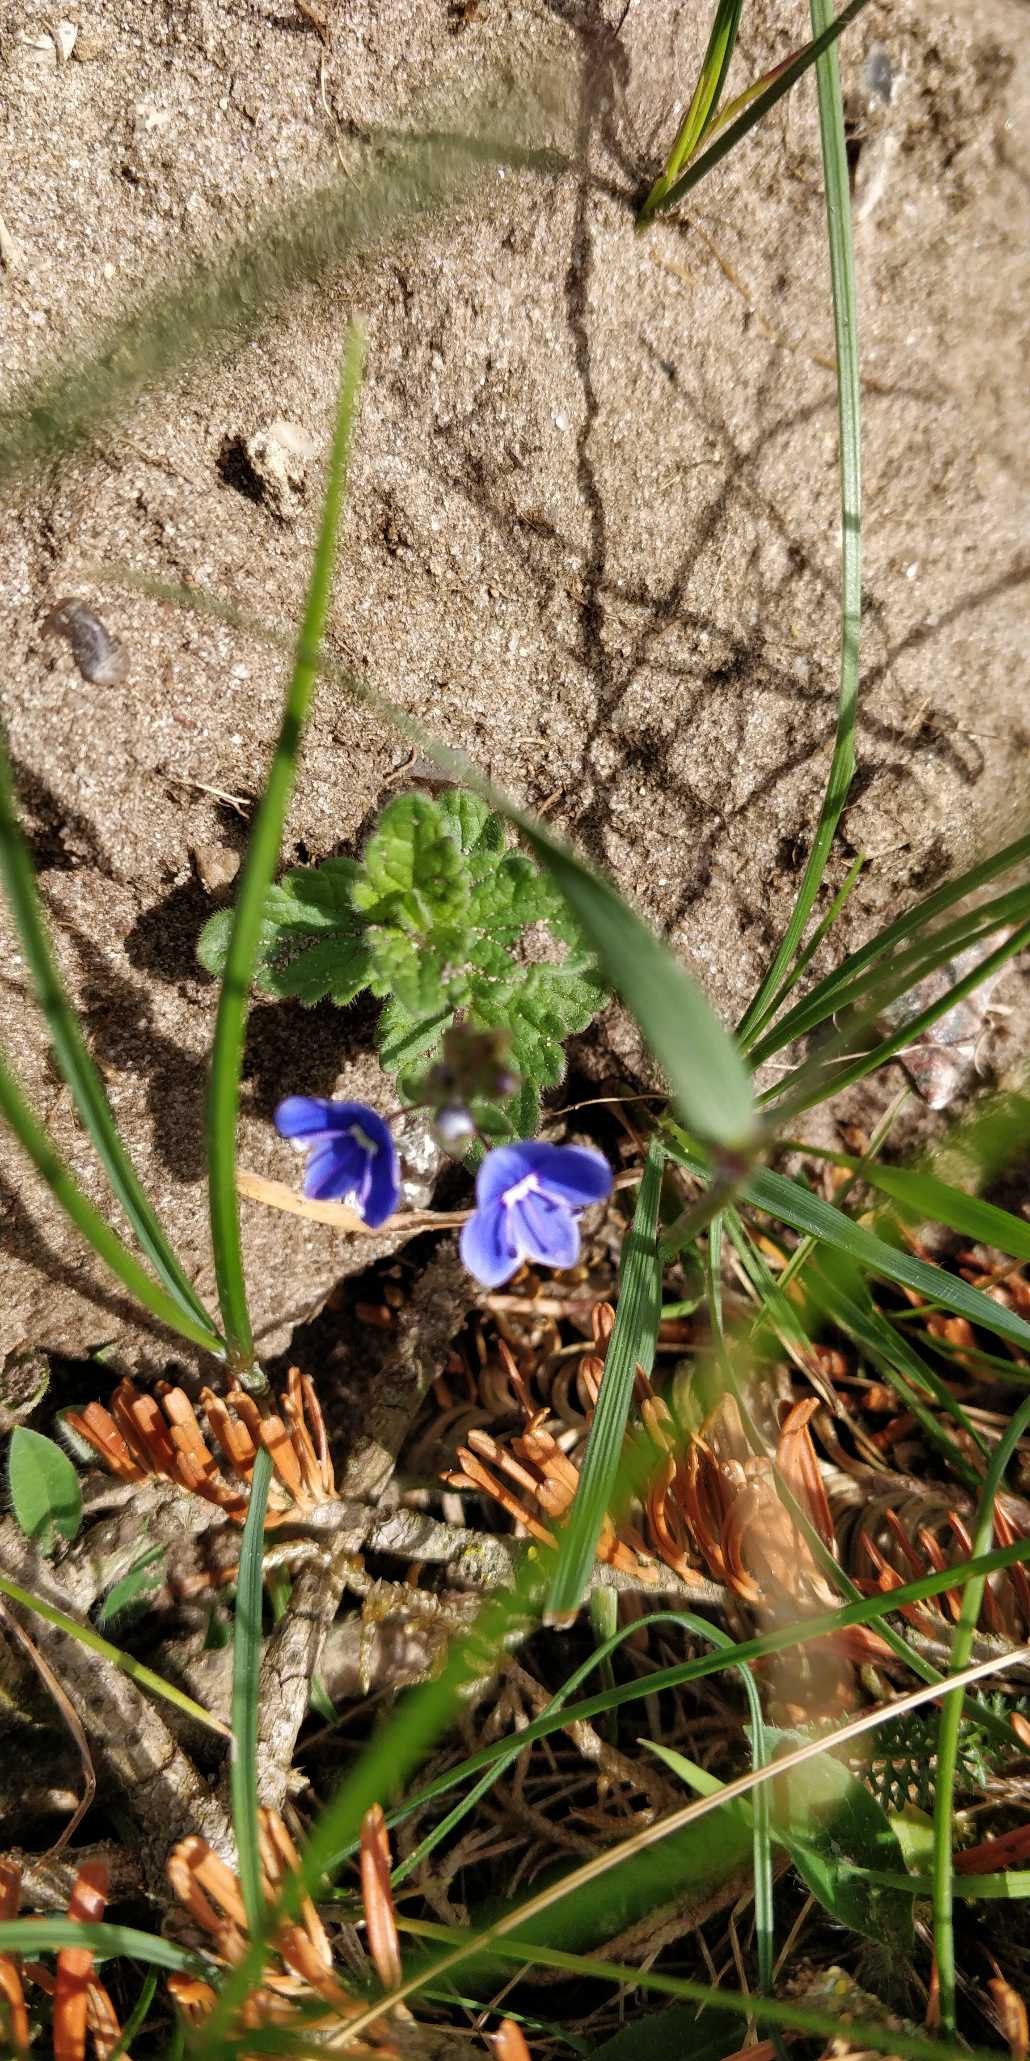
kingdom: Plantae
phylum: Tracheophyta
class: Magnoliopsida
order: Lamiales
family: Plantaginaceae
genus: Veronica
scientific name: Veronica chamaedrys
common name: Tveskægget ærenpris
